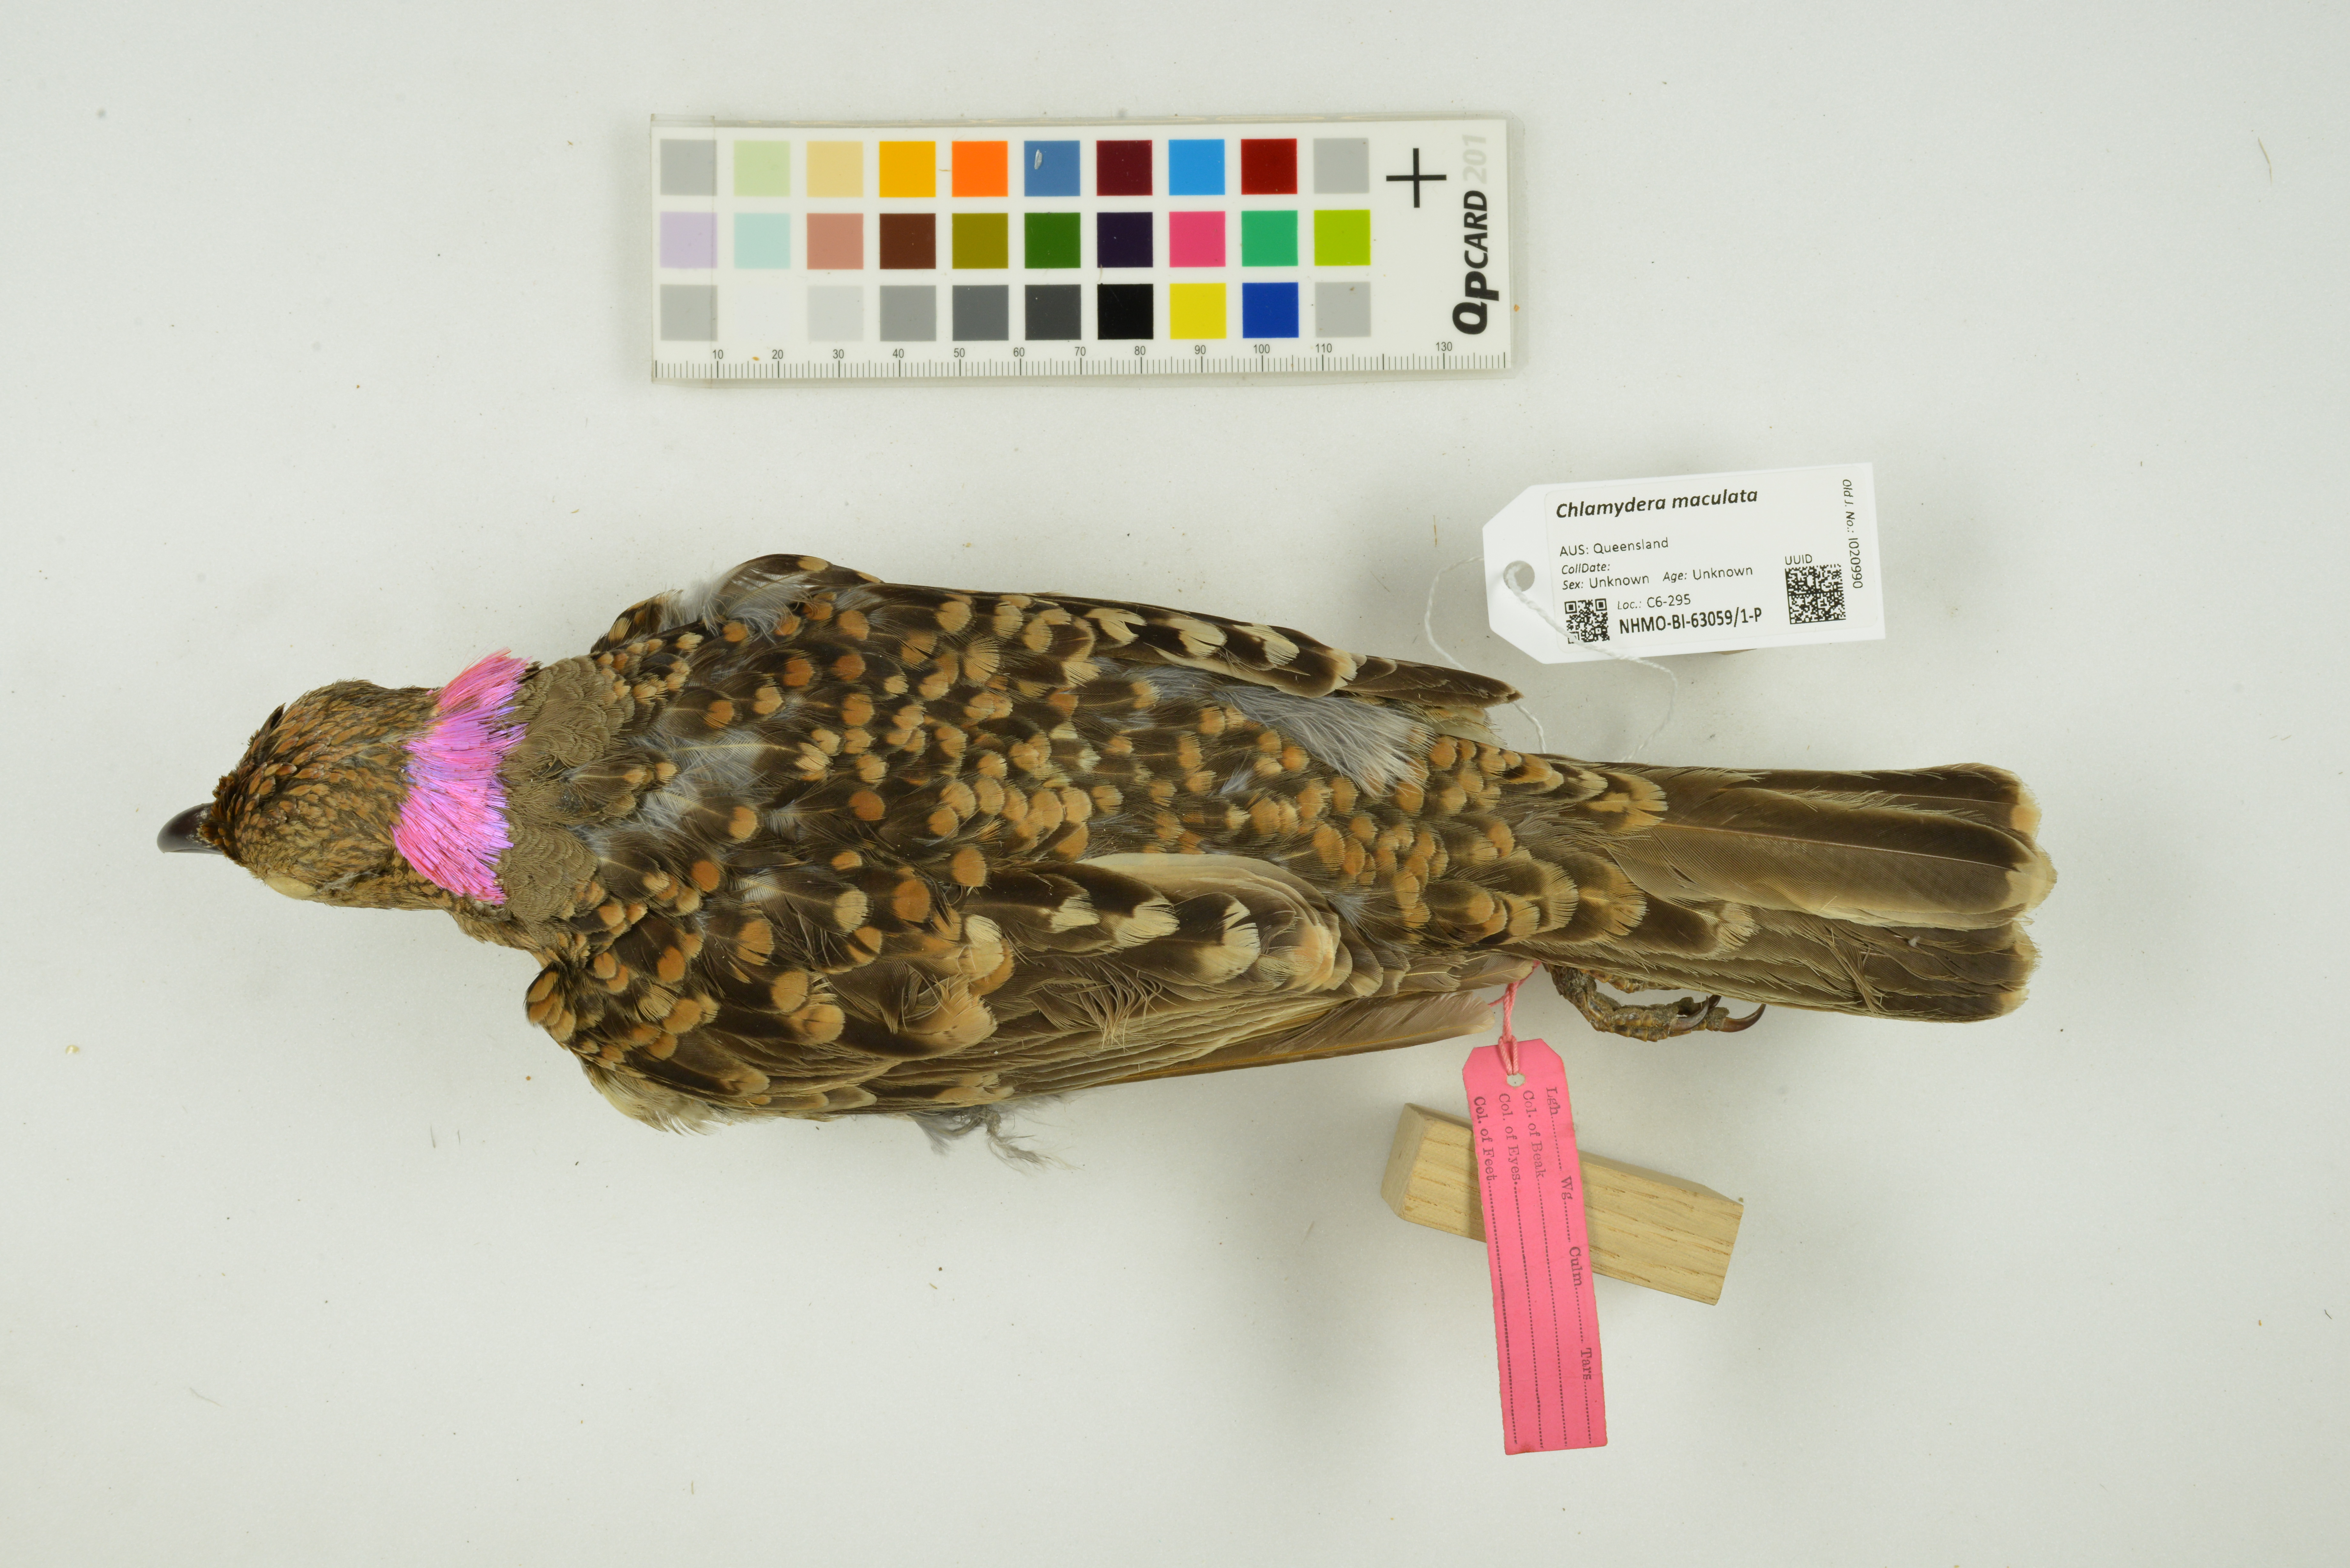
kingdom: Animalia
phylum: Chordata
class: Aves
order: Passeriformes
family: Ptilonorhynchidae
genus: Chlamydera
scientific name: Chlamydera maculata
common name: Spotted bowerbird
